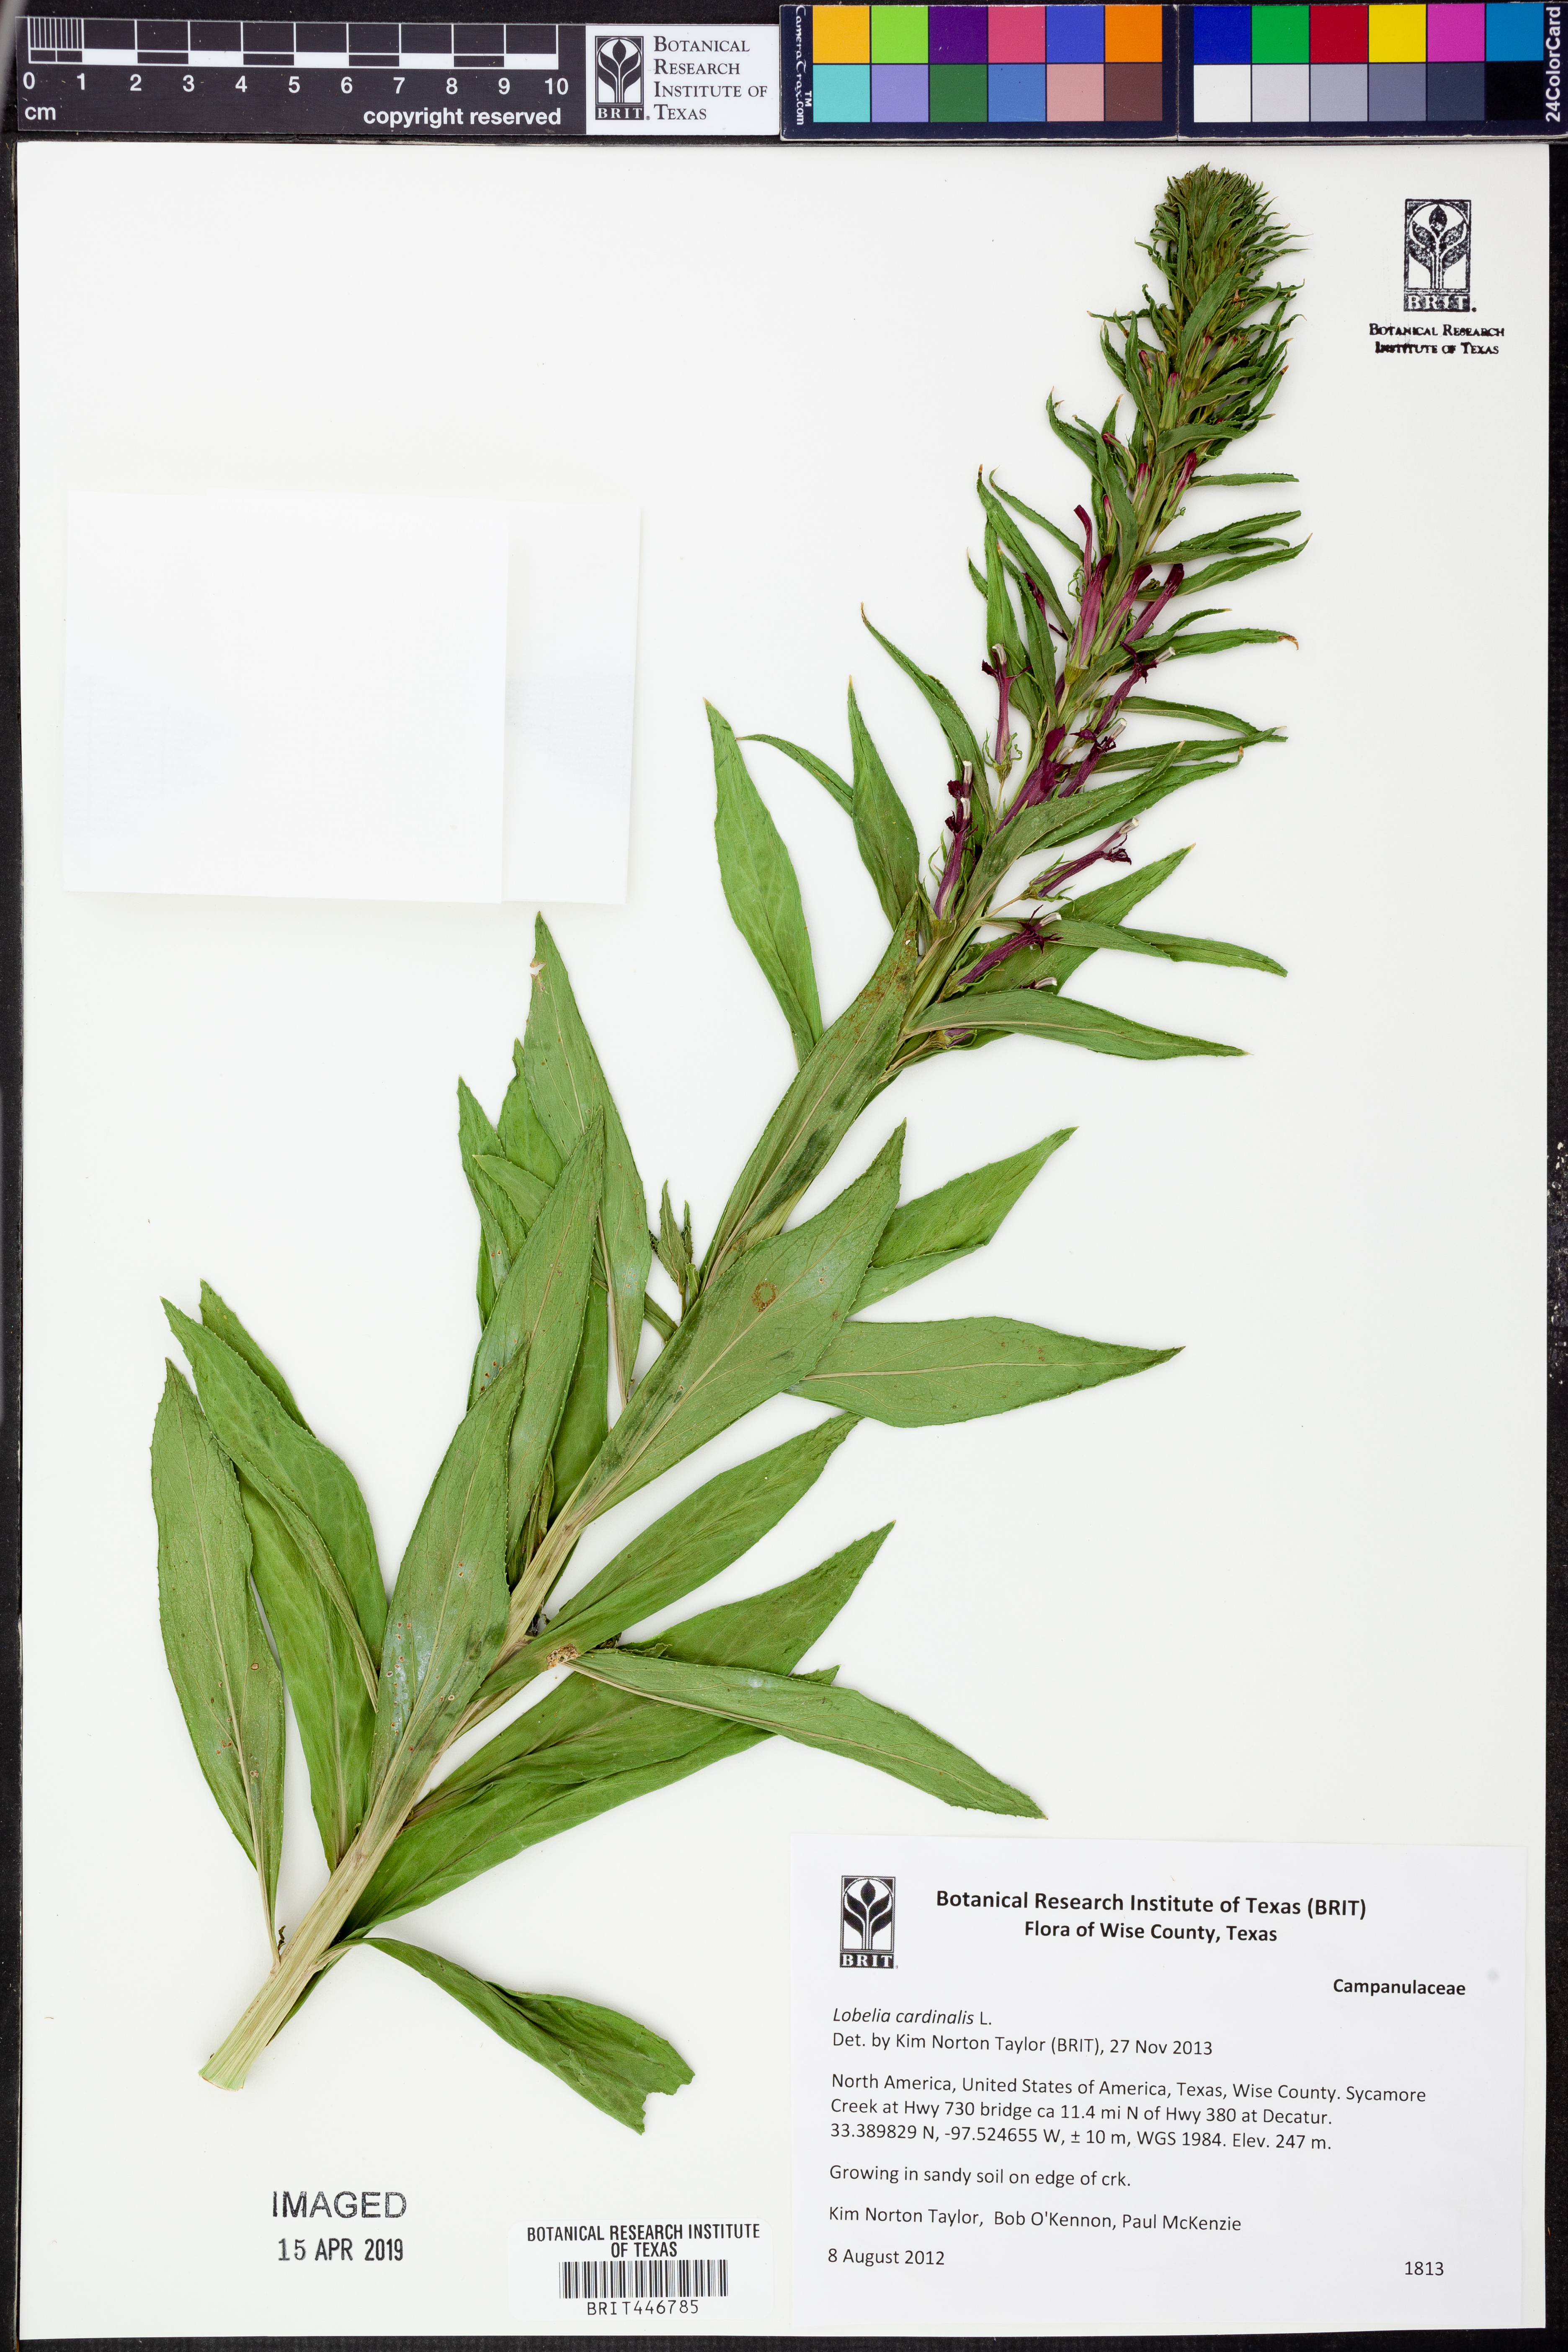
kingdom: Plantae
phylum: Tracheophyta
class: Magnoliopsida
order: Asterales
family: Campanulaceae
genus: Lobelia
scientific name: Lobelia cardinalis
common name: Cardinal flower
